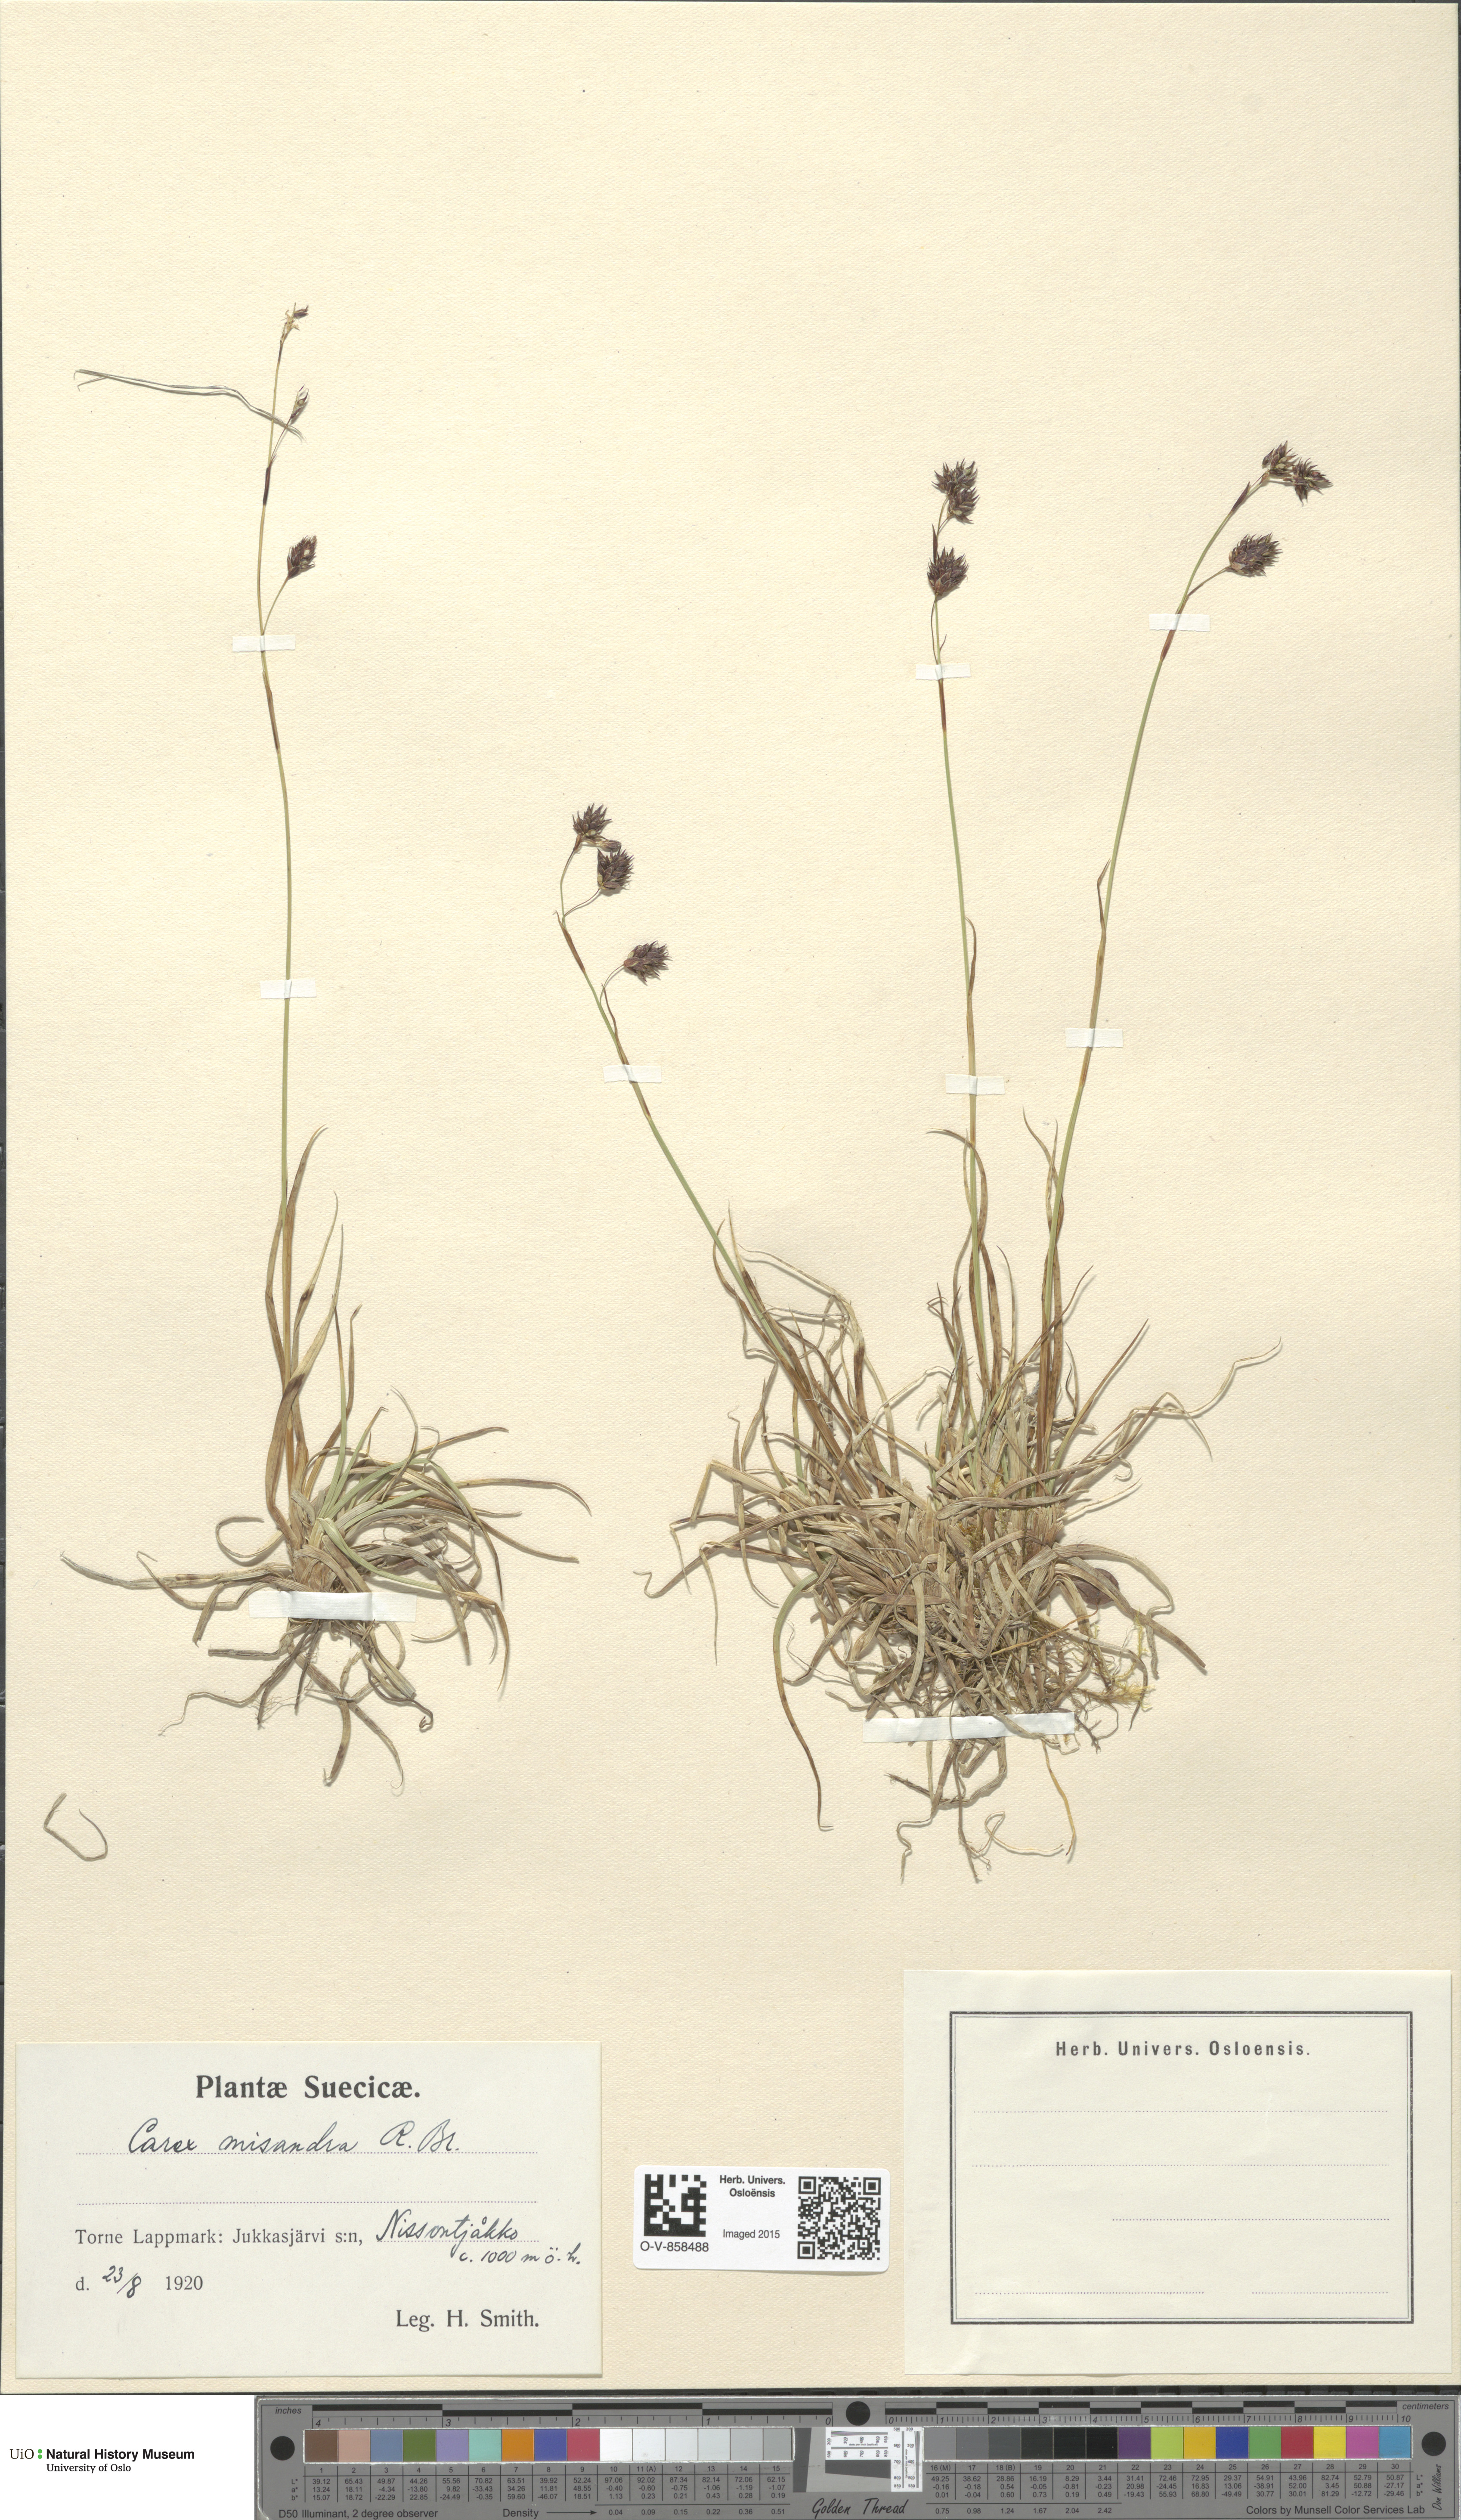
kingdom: Plantae
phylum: Tracheophyta
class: Liliopsida
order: Poales
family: Cyperaceae
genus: Carex
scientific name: Carex fuliginosa
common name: Few-flowered sedge
